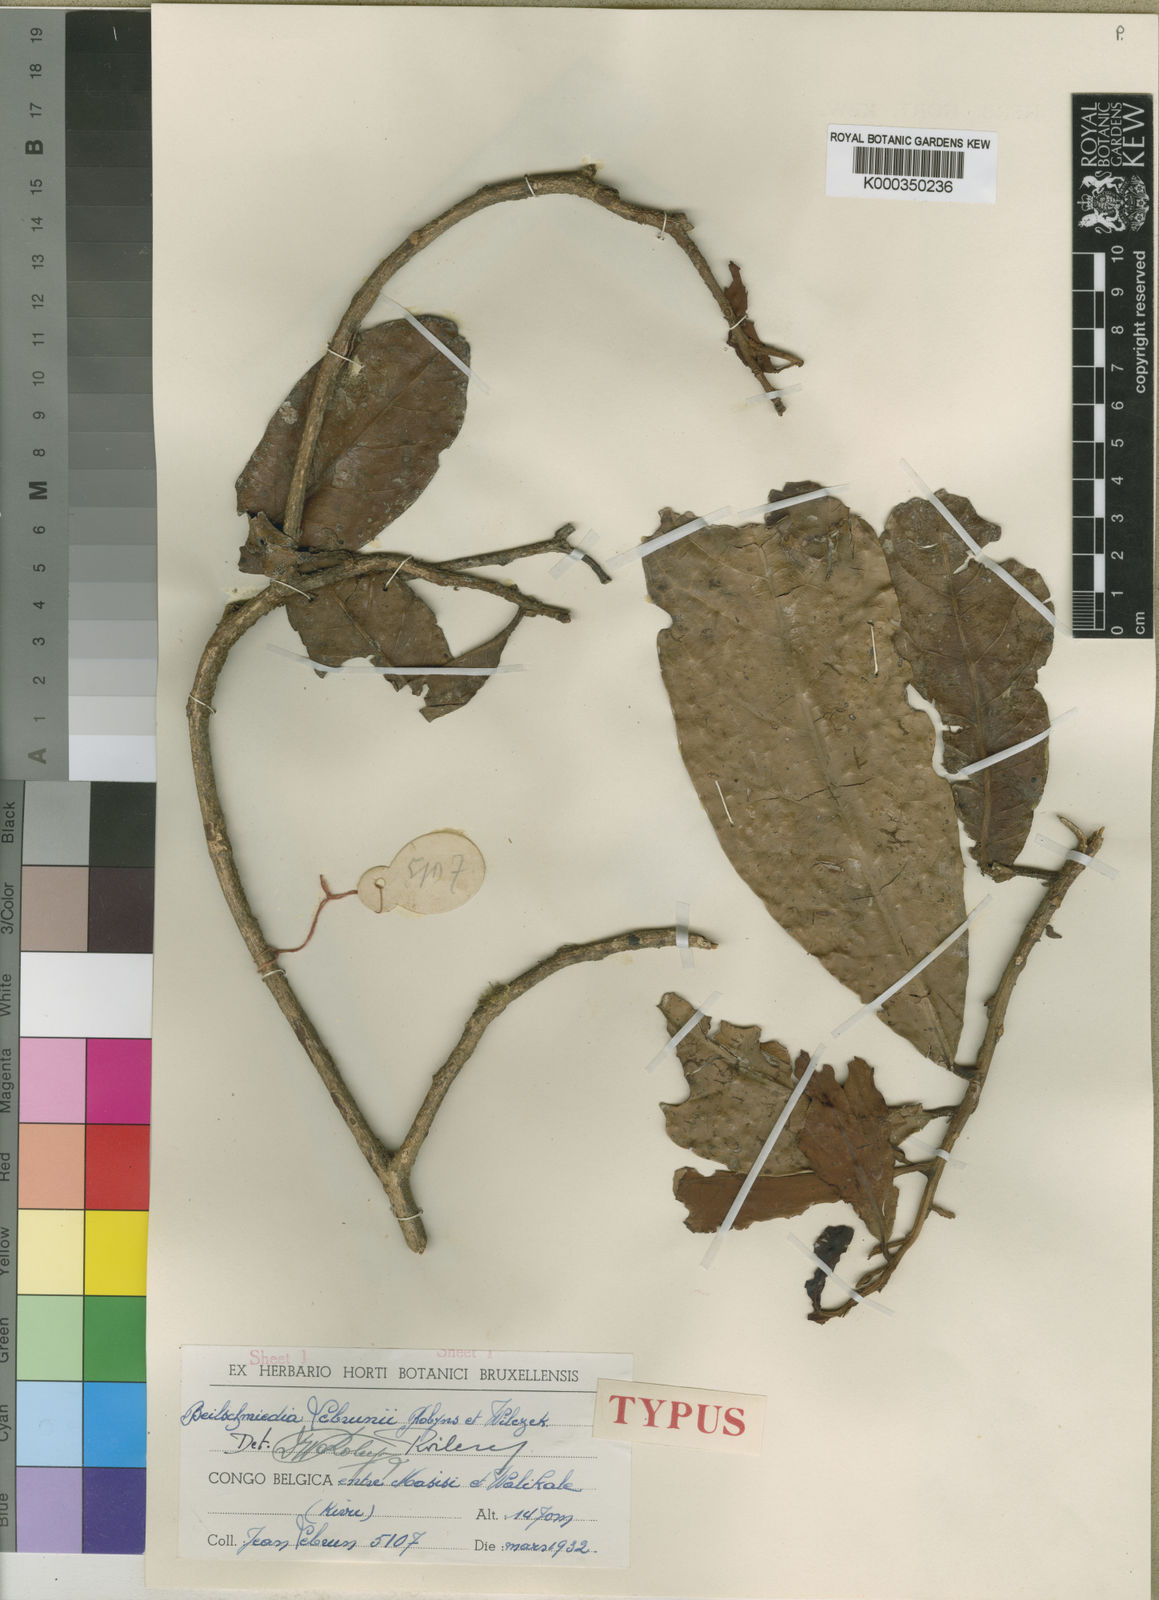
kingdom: Plantae
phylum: Tracheophyta
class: Magnoliopsida
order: Laurales
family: Lauraceae
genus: Beilschmiedia
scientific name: Beilschmiedia lebrunii
